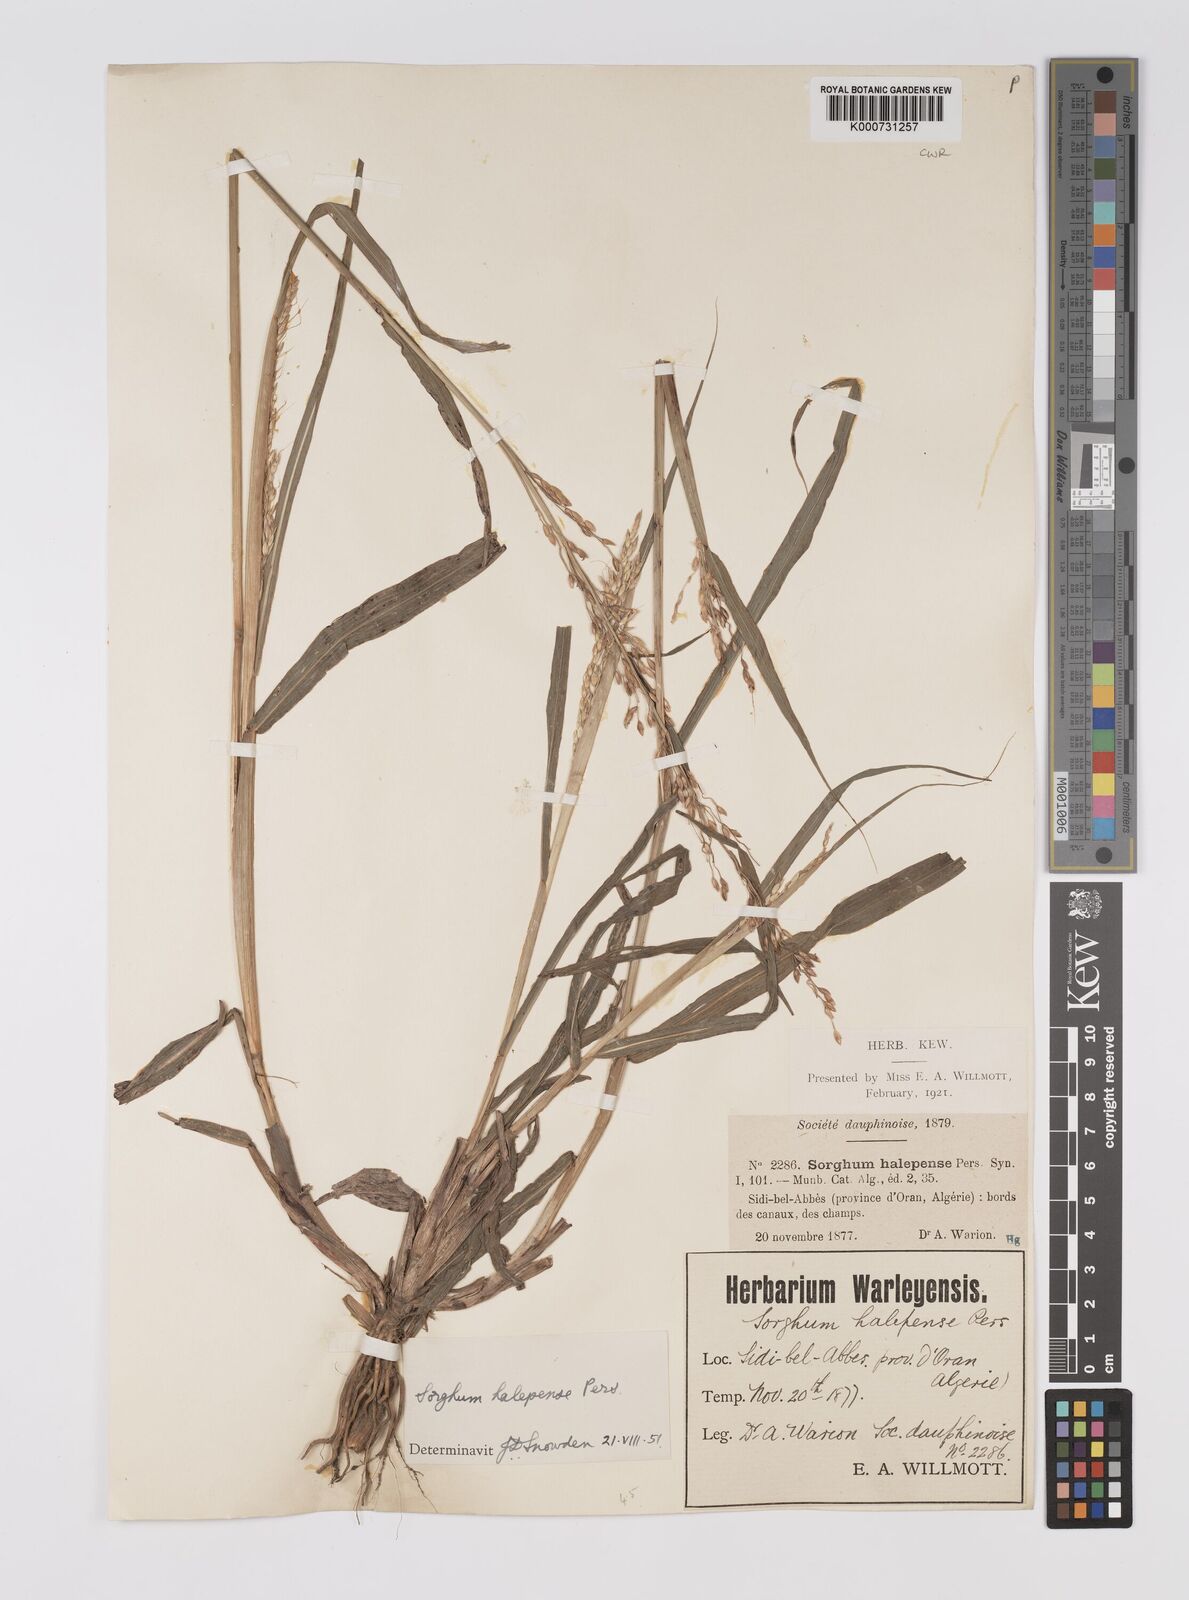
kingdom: Plantae
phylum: Tracheophyta
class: Liliopsida
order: Poales
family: Poaceae
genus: Sorghum
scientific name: Sorghum halepense
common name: Johnson-grass
